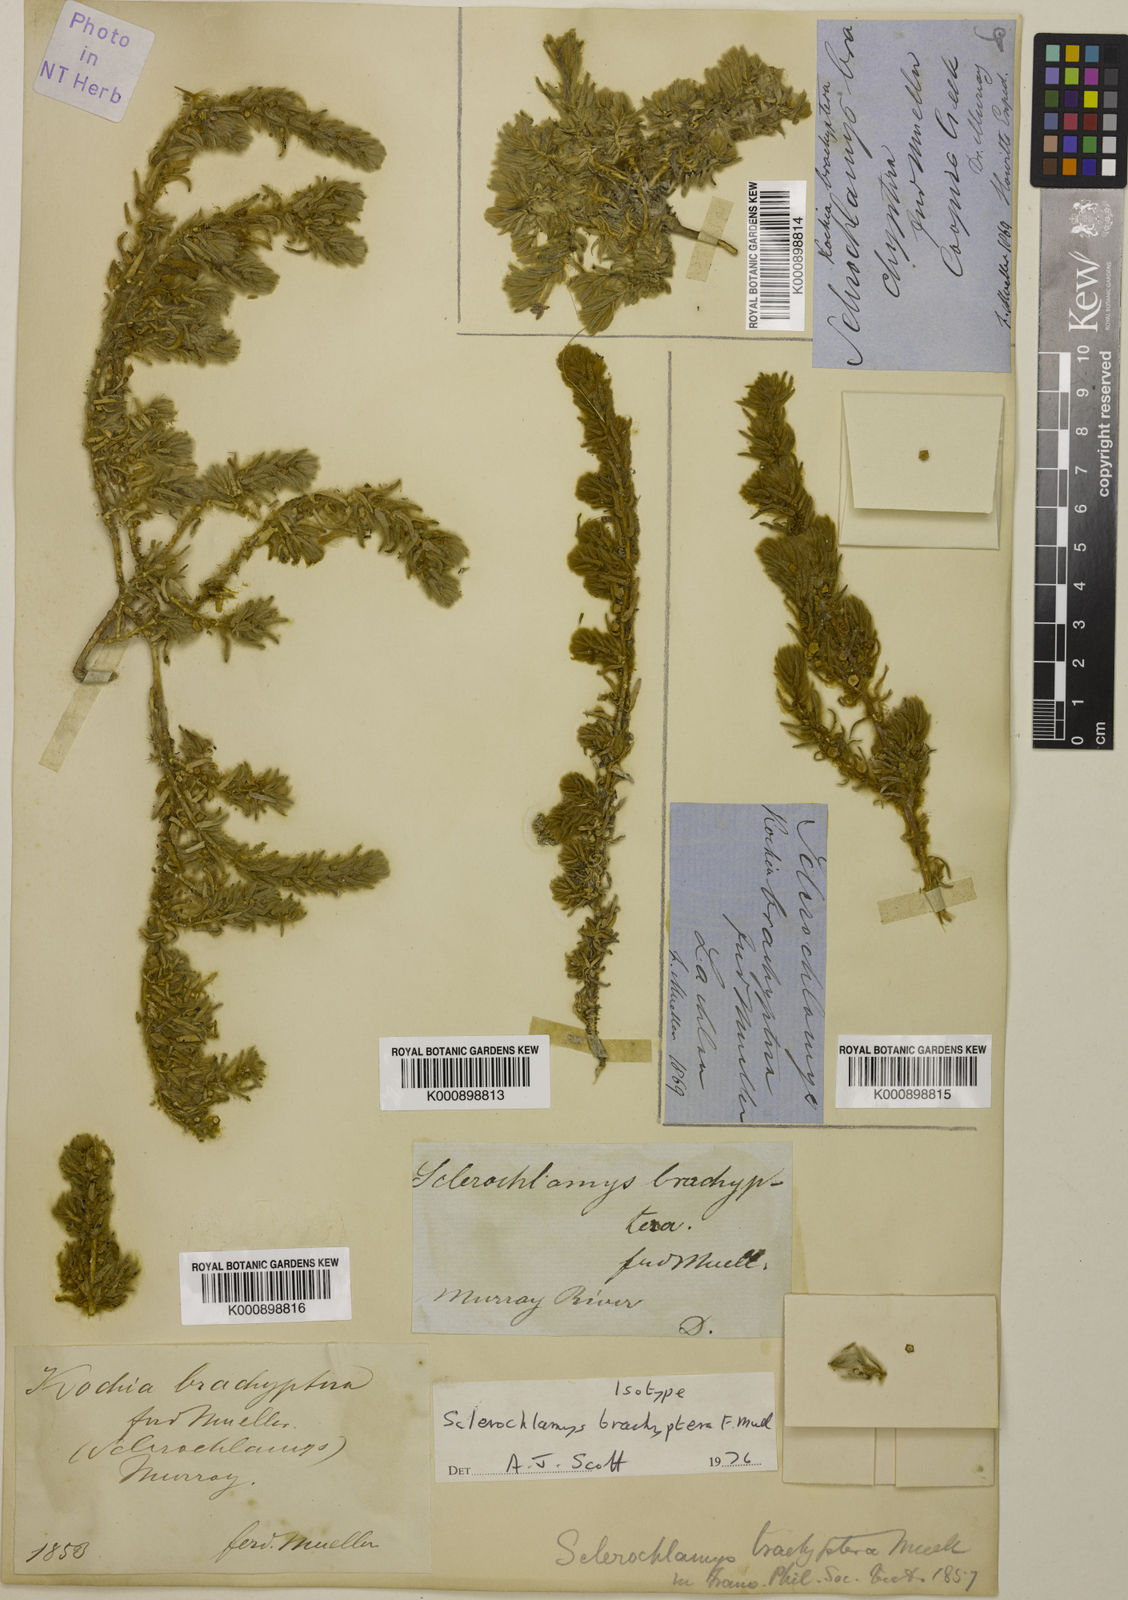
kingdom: Plantae
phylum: Tracheophyta
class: Magnoliopsida
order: Caryophyllales
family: Amaranthaceae
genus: Sclerolaena
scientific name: Sclerolaena brachyptera
